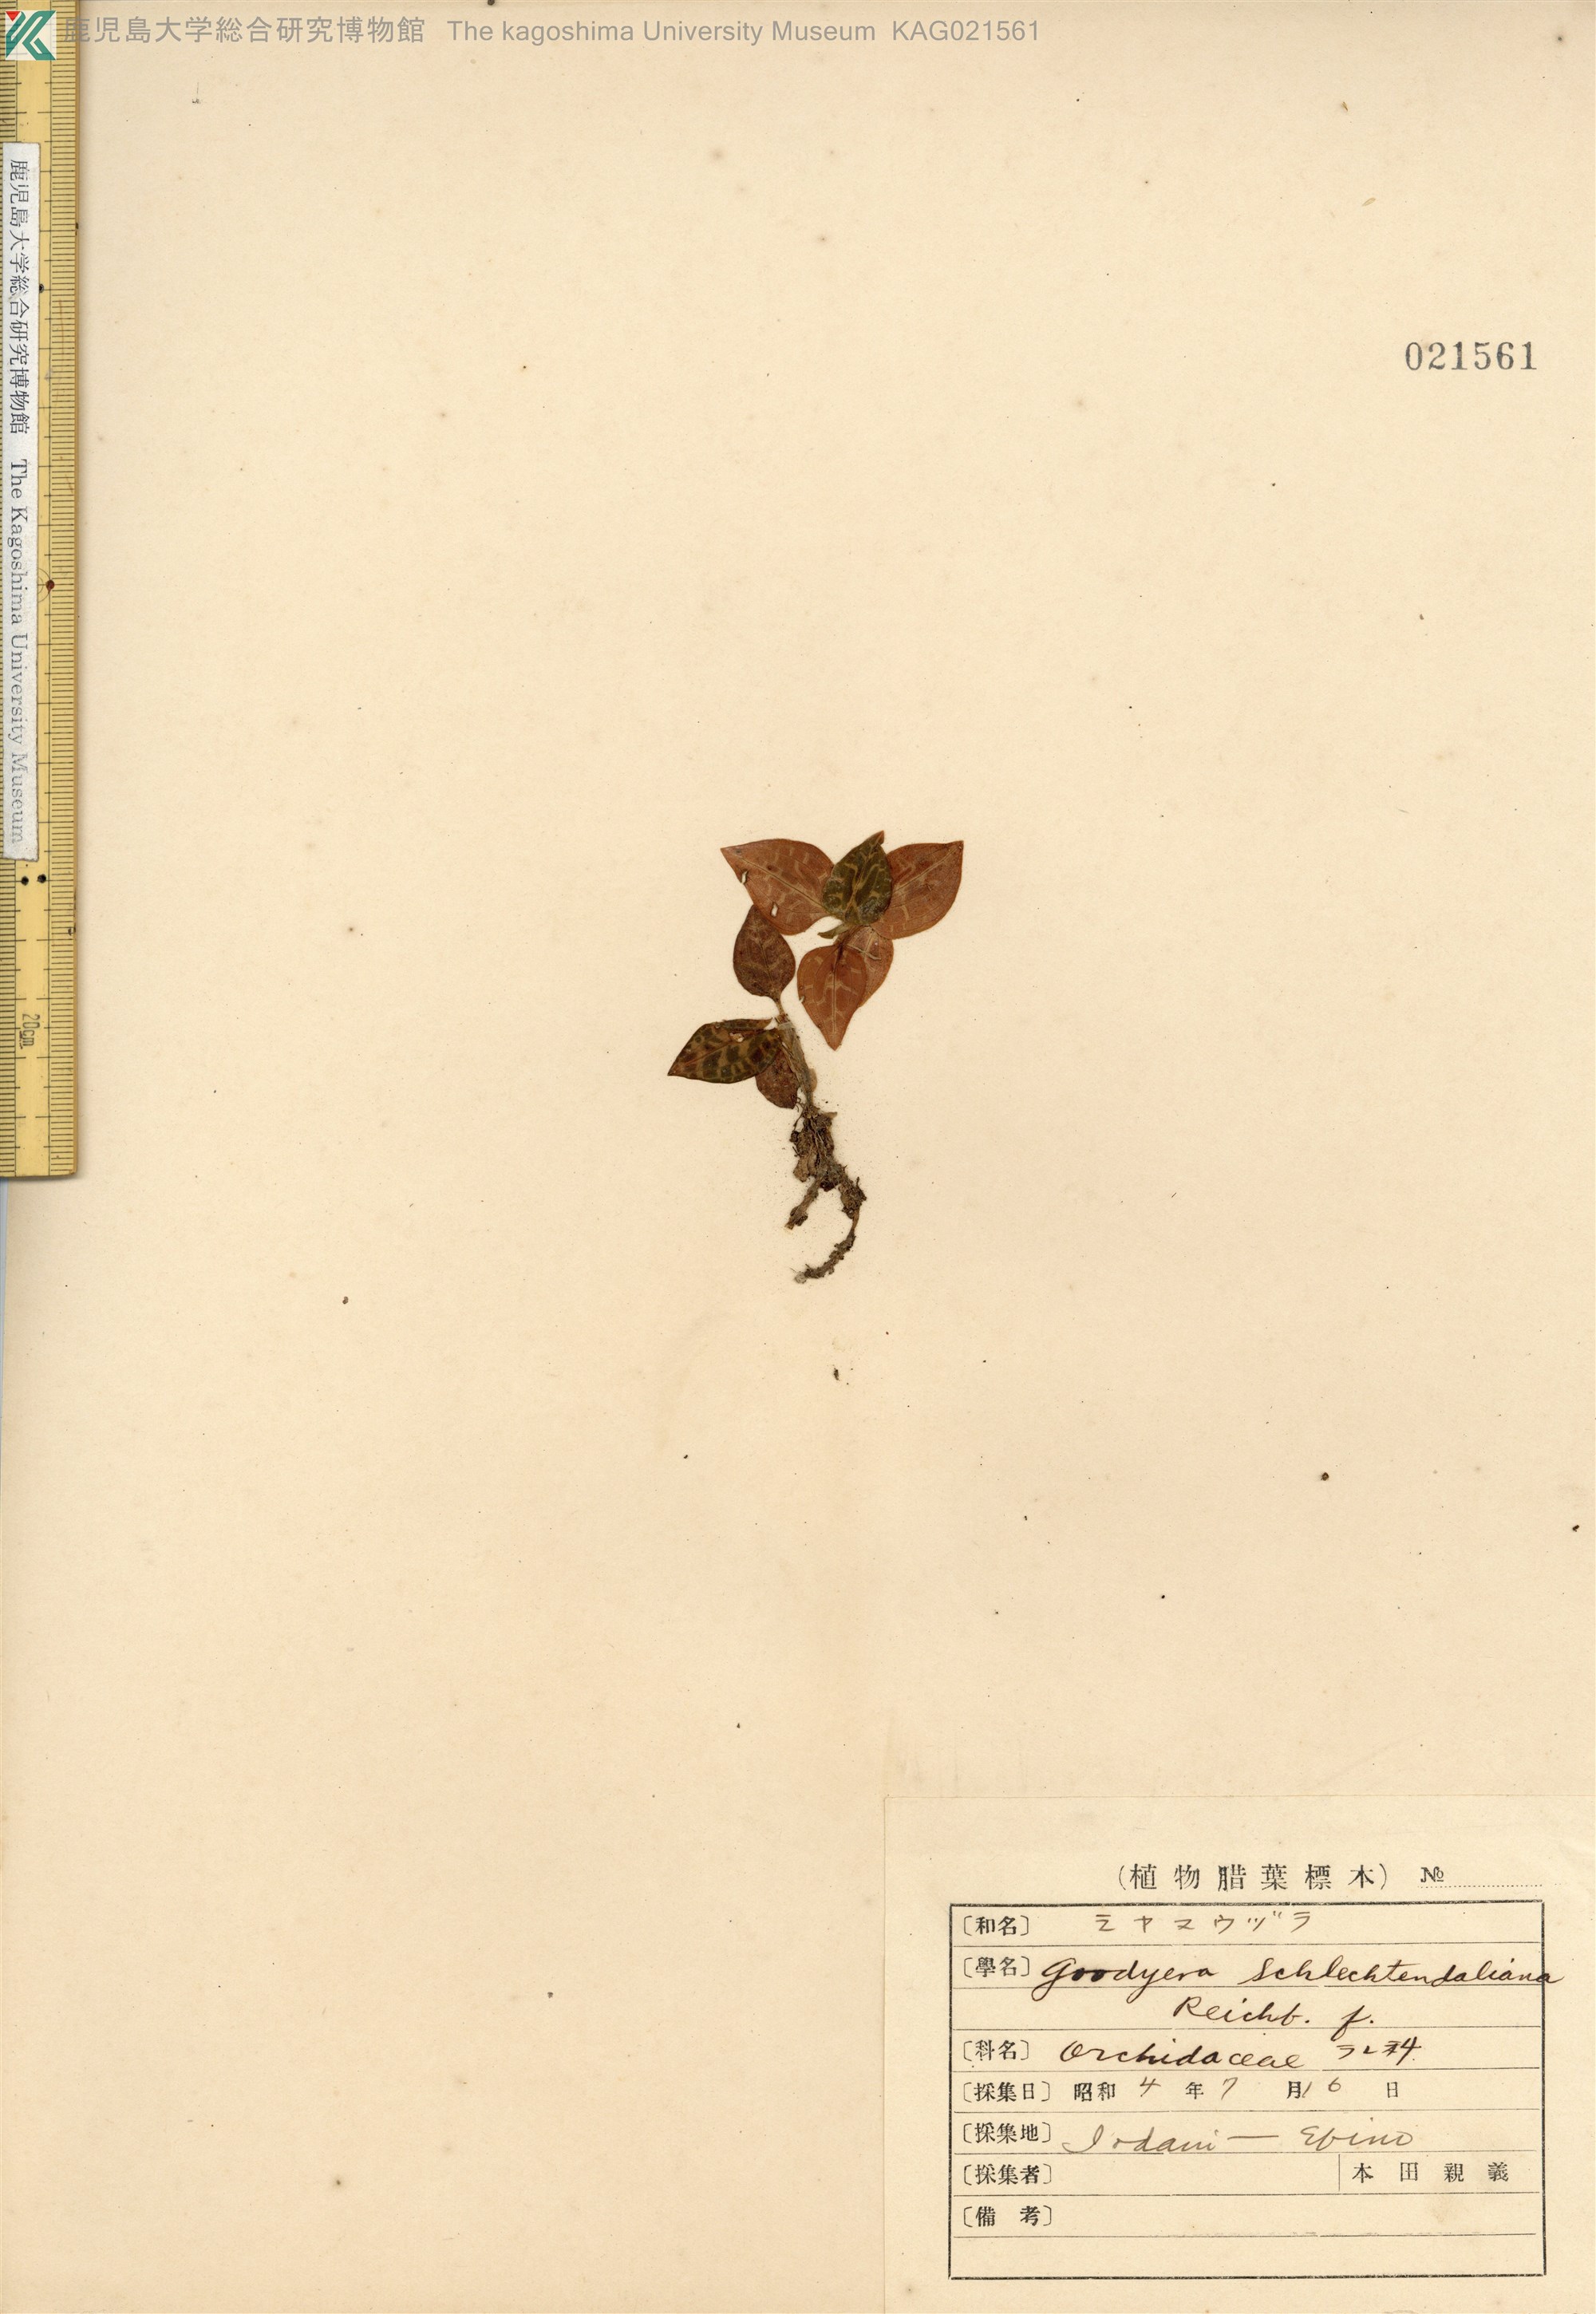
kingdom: Plantae
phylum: Tracheophyta
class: Liliopsida
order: Asparagales
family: Orchidaceae
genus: Goodyera
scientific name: Goodyera schlechtendaliana
